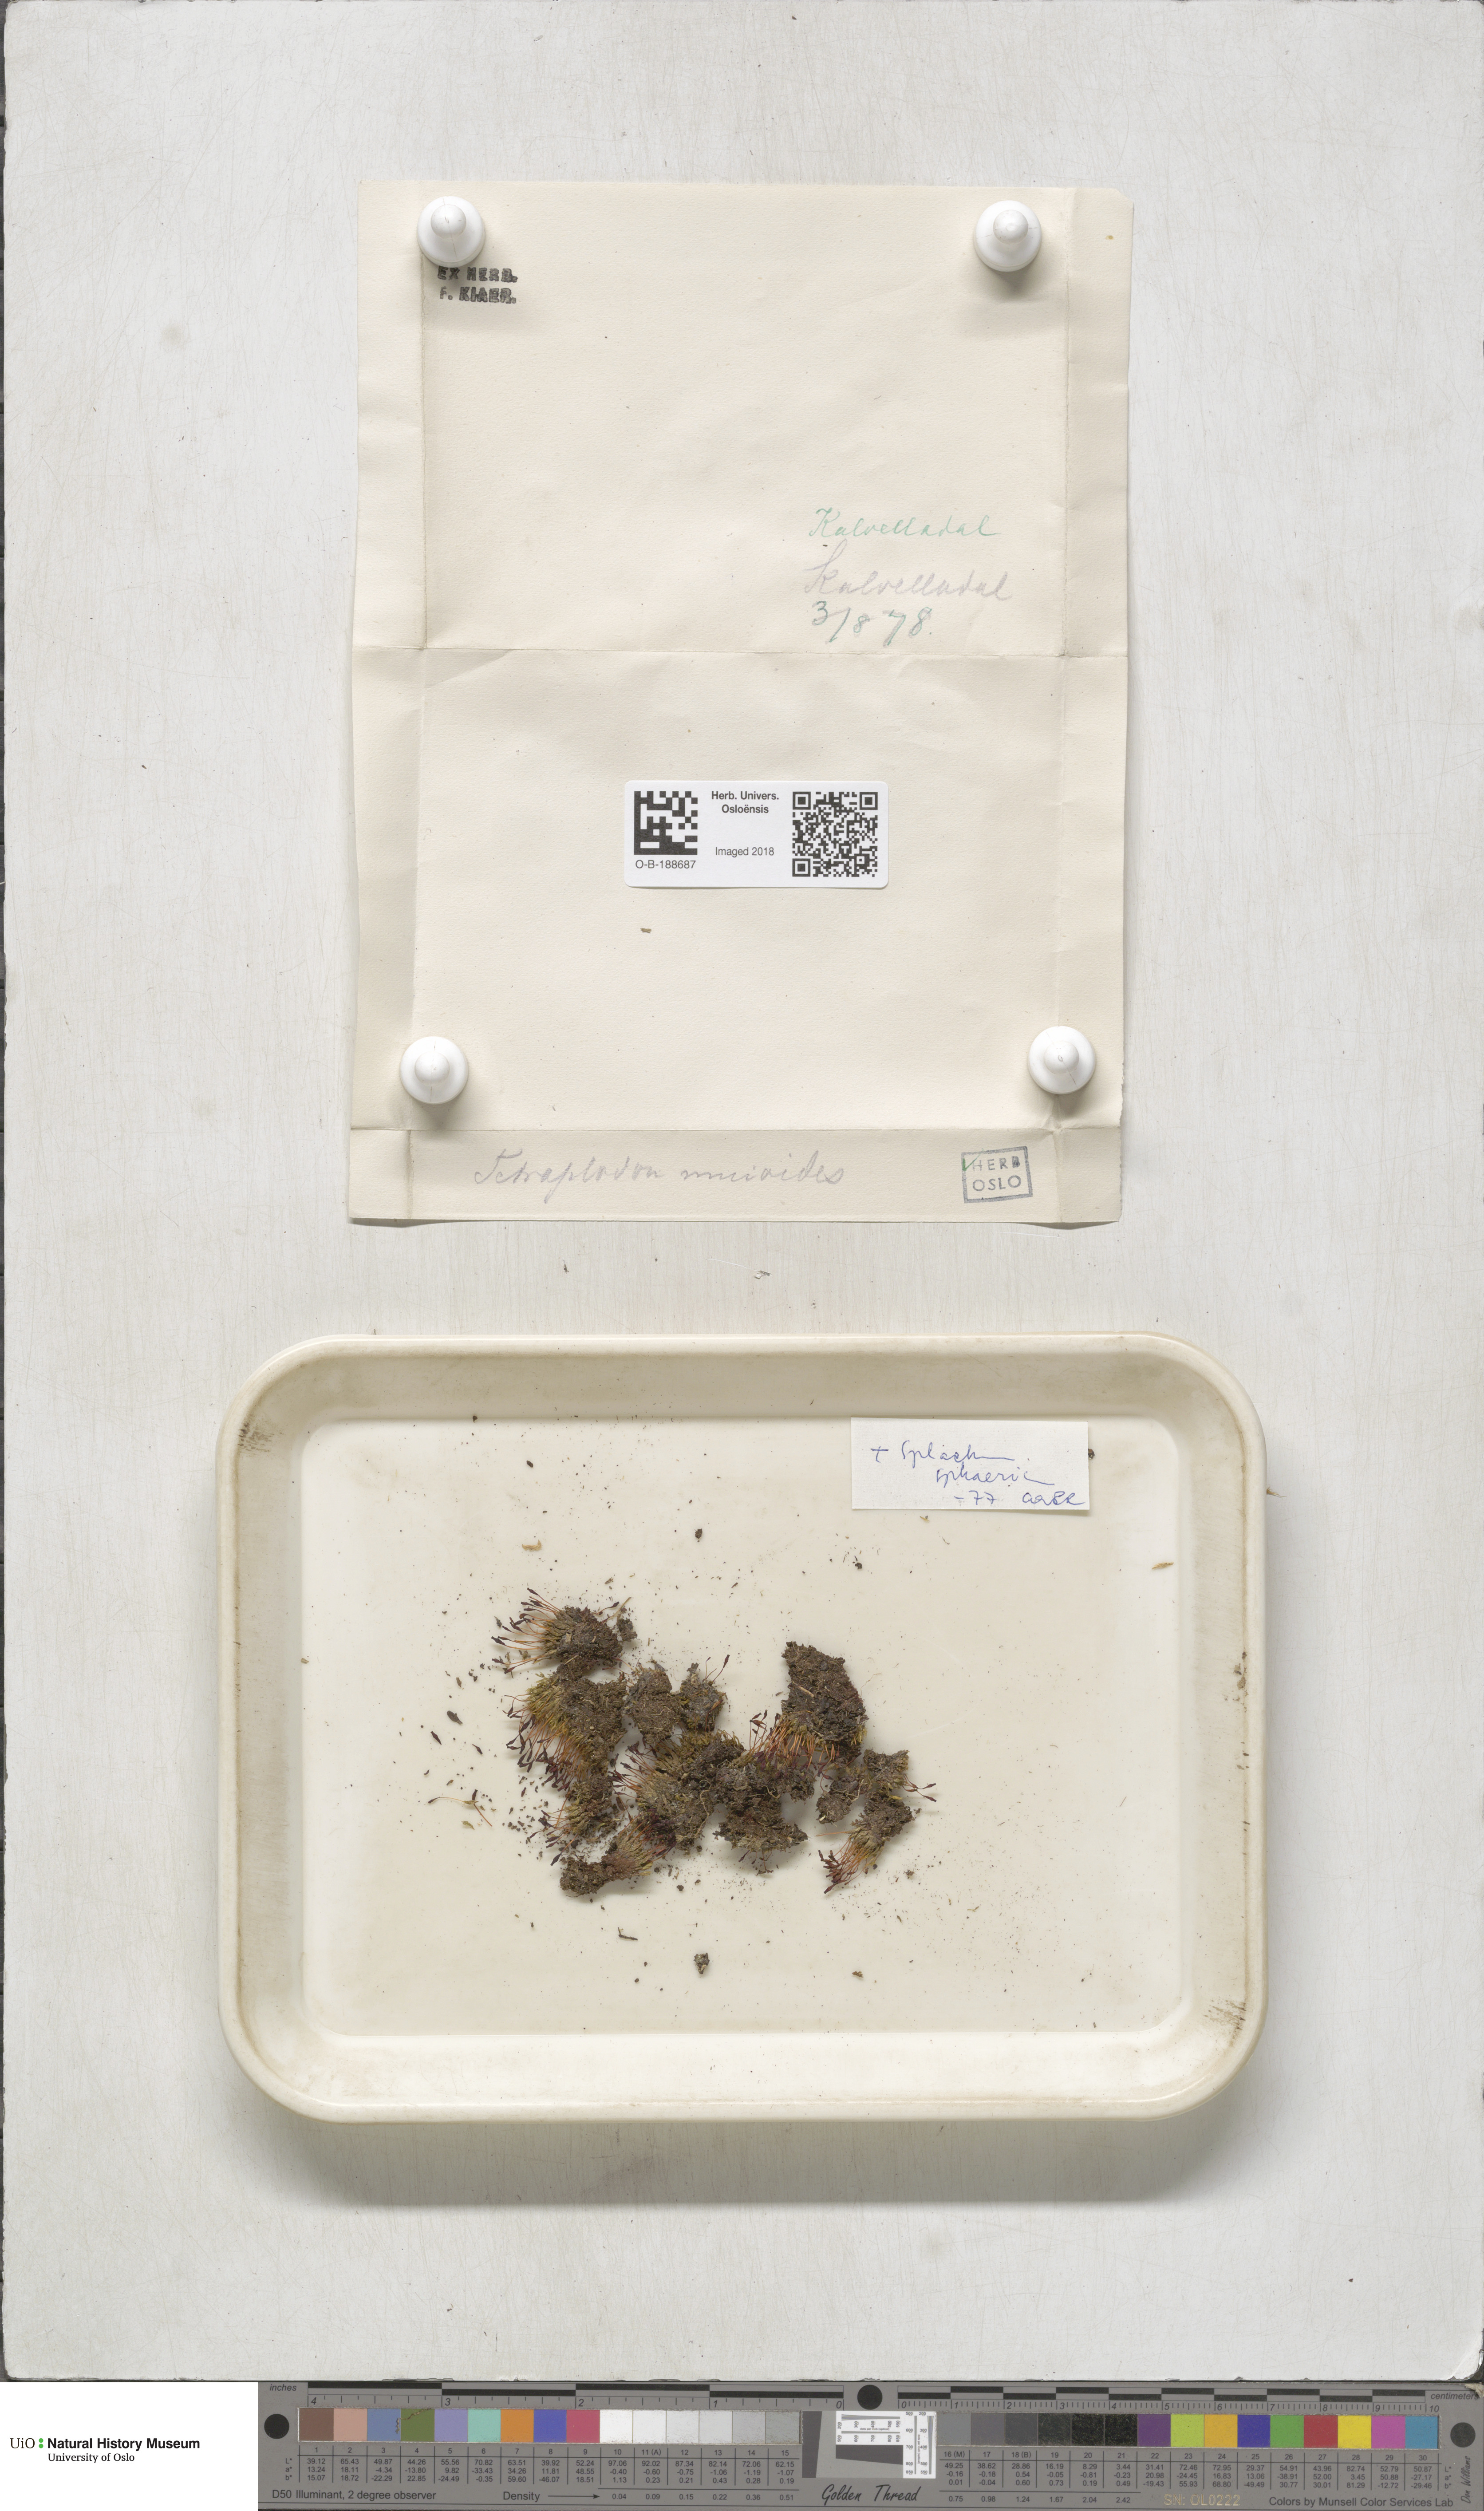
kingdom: Plantae
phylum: Bryophyta
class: Bryopsida
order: Splachnales
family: Splachnaceae
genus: Tetraplodon
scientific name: Tetraplodon mnioides
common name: Entire-leaved nitrogen moss
